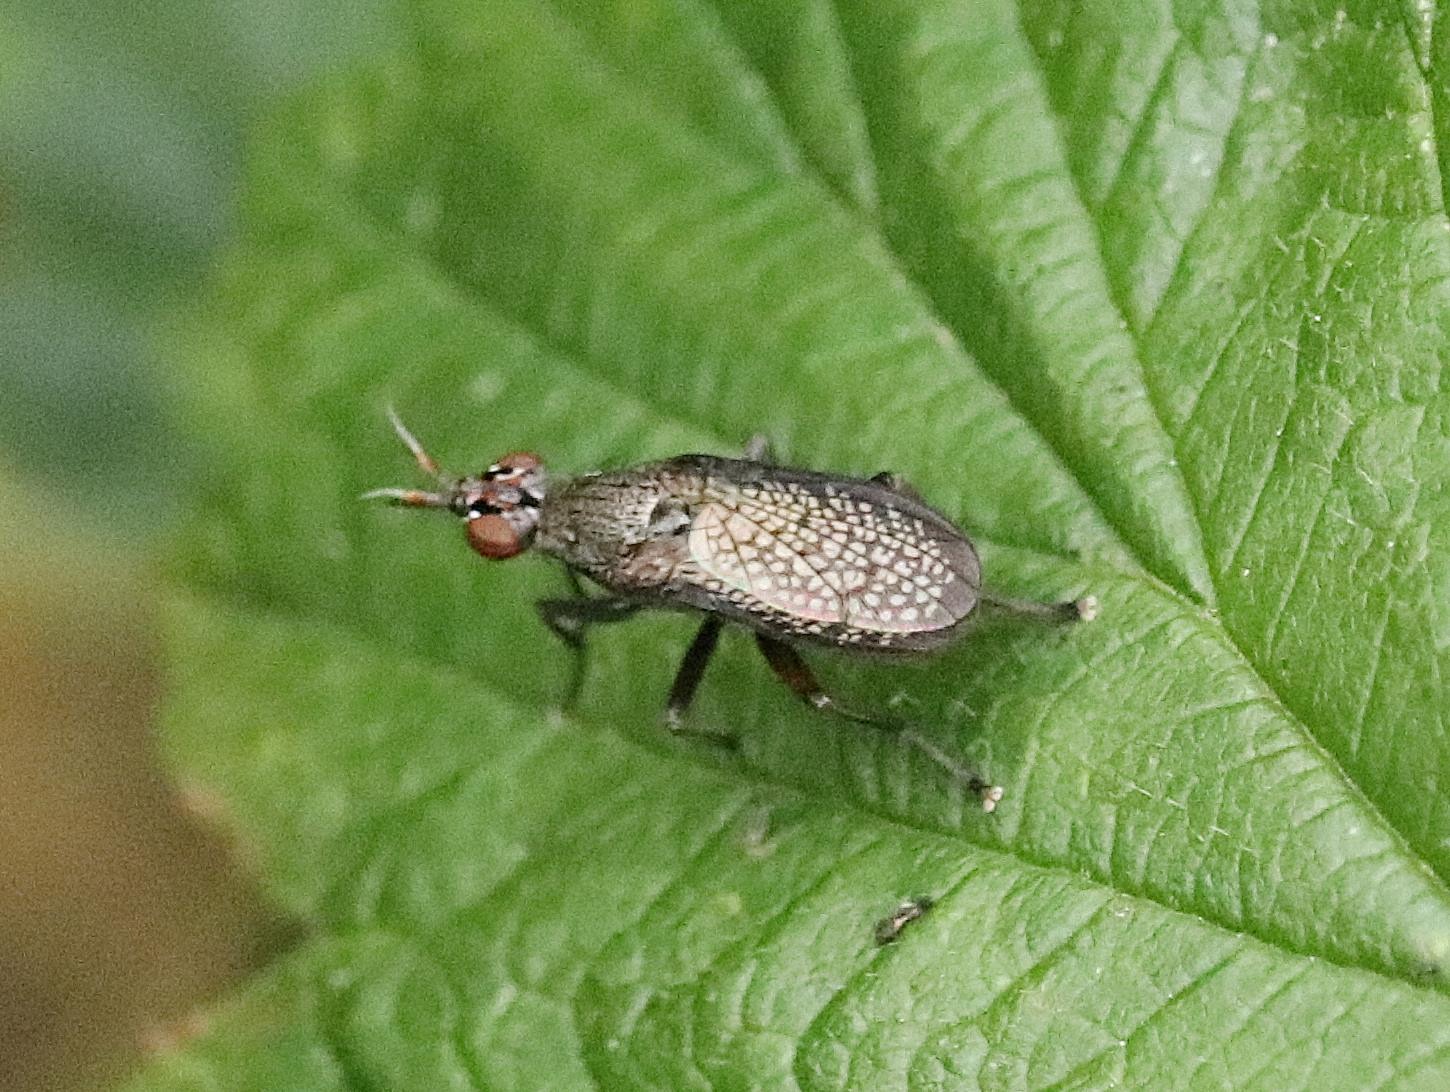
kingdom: Animalia
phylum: Arthropoda
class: Insecta
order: Diptera
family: Sciomyzidae
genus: Coremacera
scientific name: Coremacera marginata
